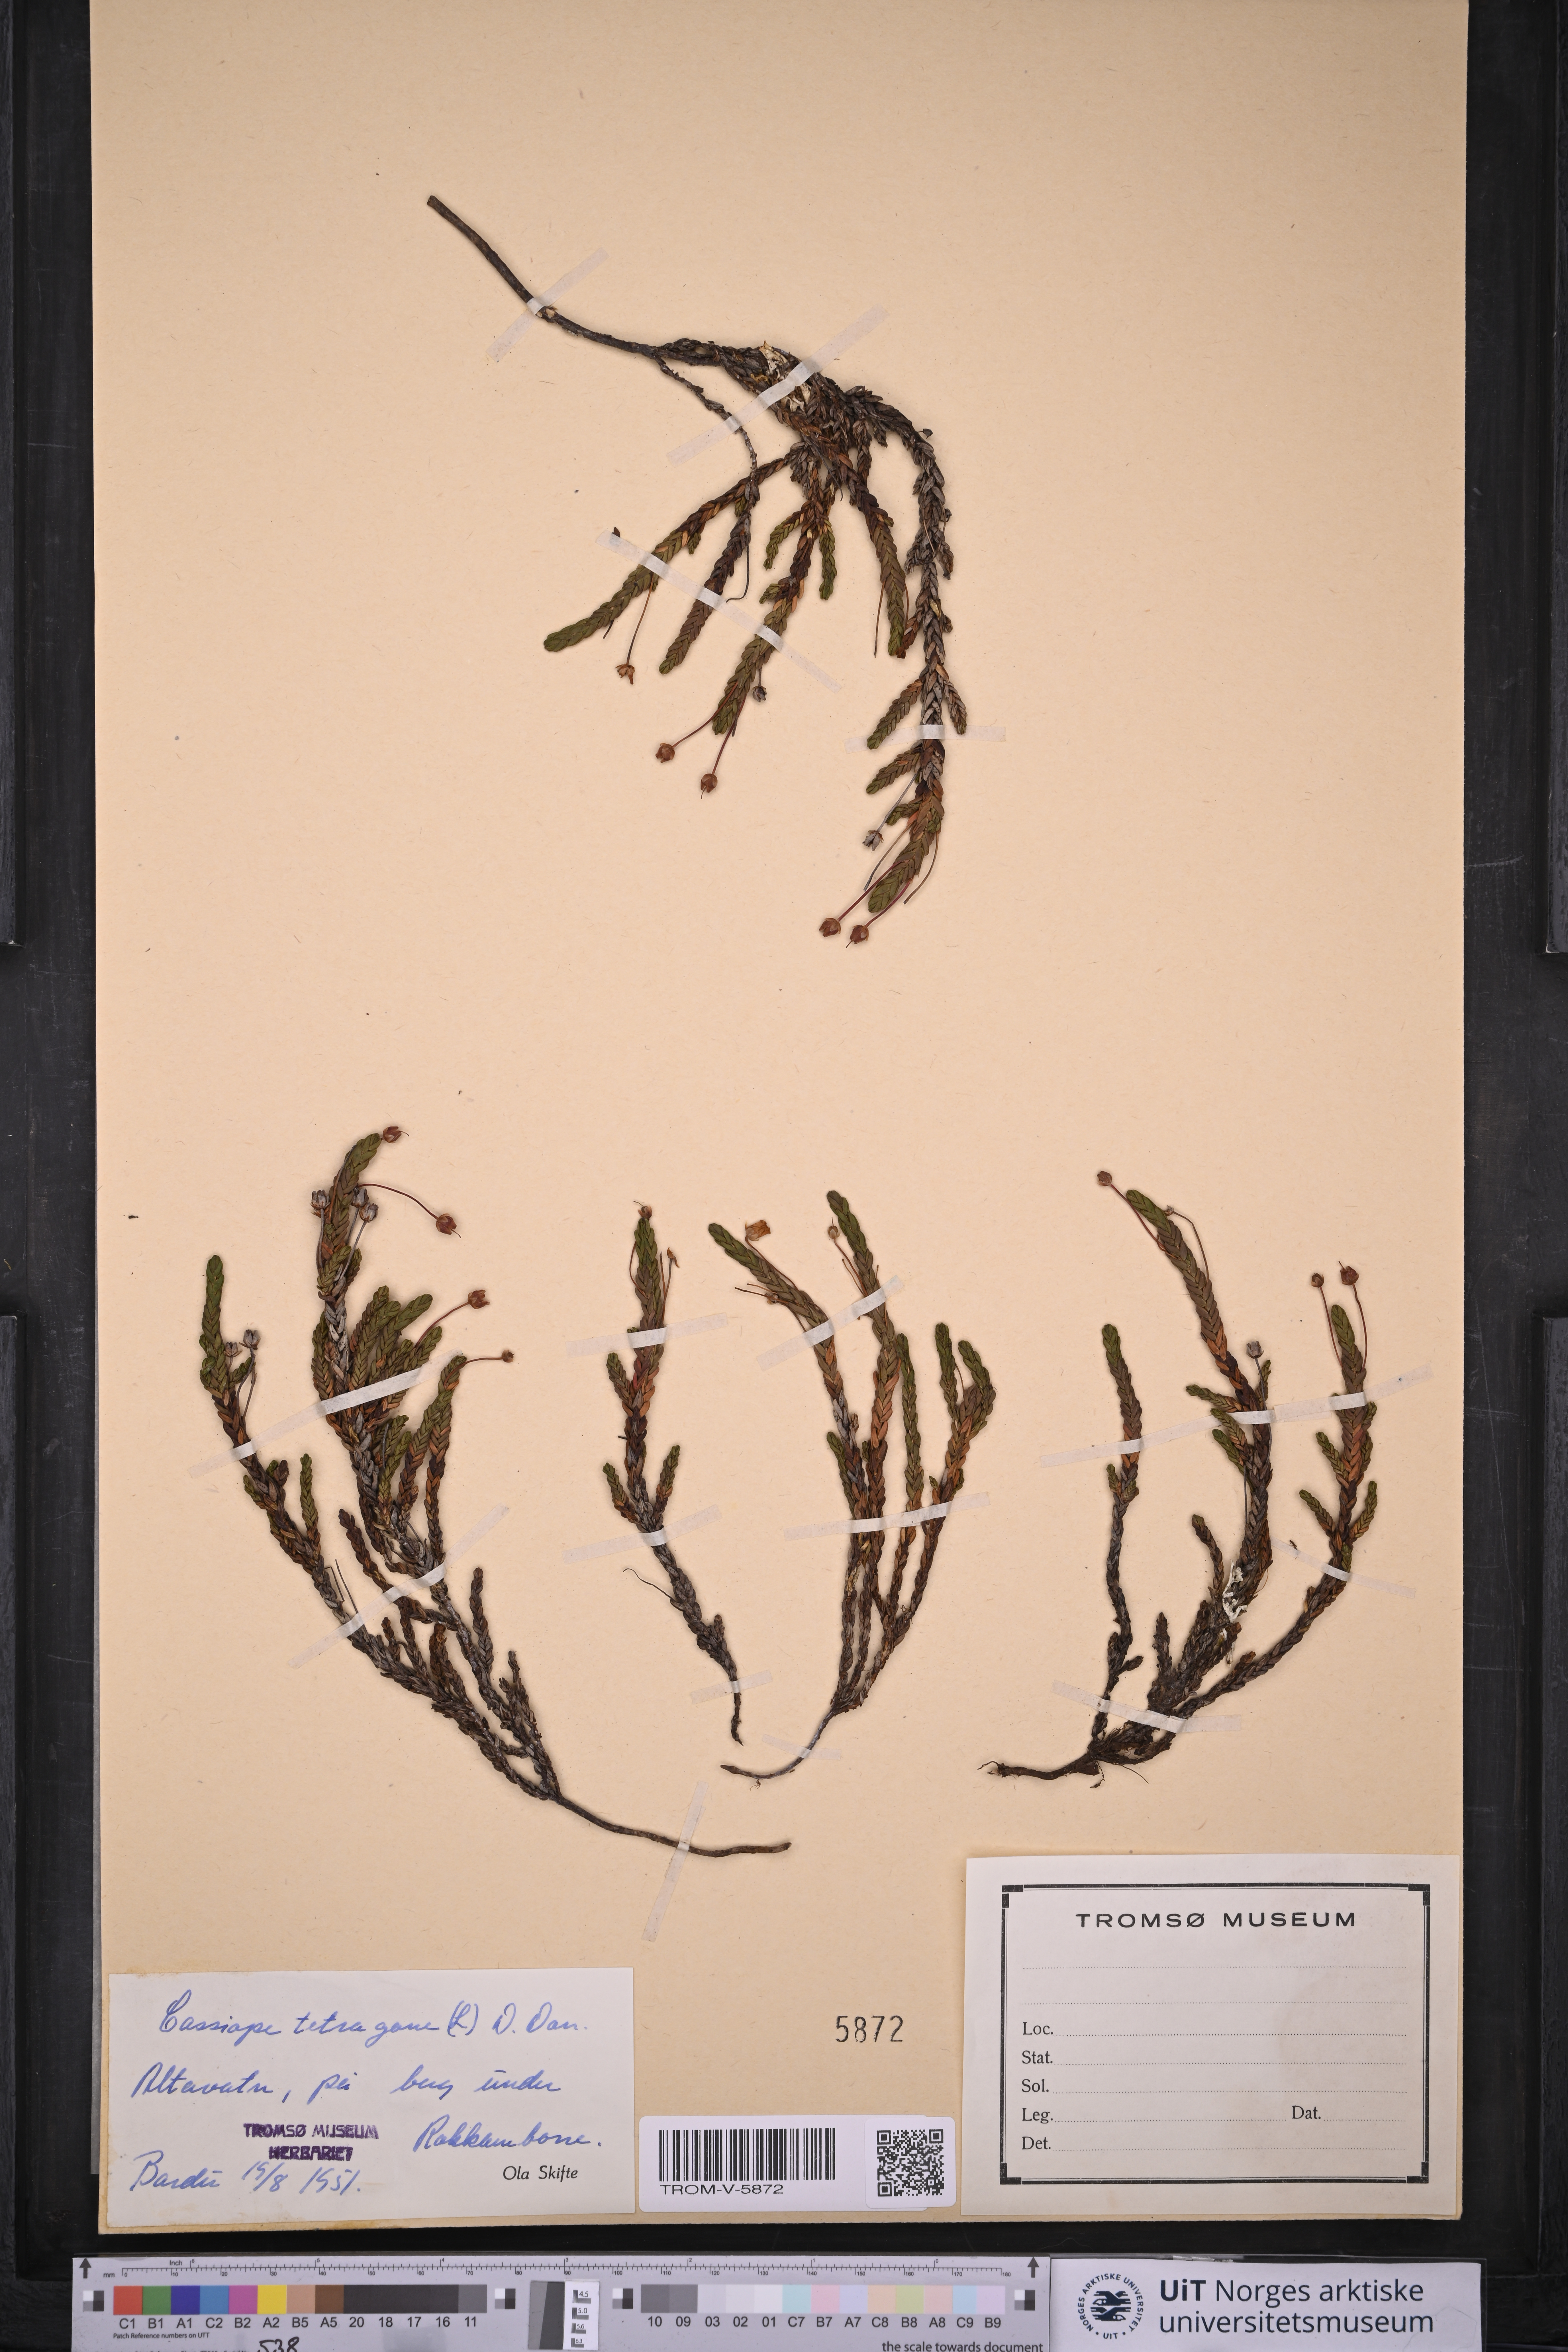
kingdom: Plantae
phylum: Tracheophyta
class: Magnoliopsida
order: Ericales
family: Ericaceae
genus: Cassiope
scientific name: Cassiope tetragona
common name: Arctic bell heather
